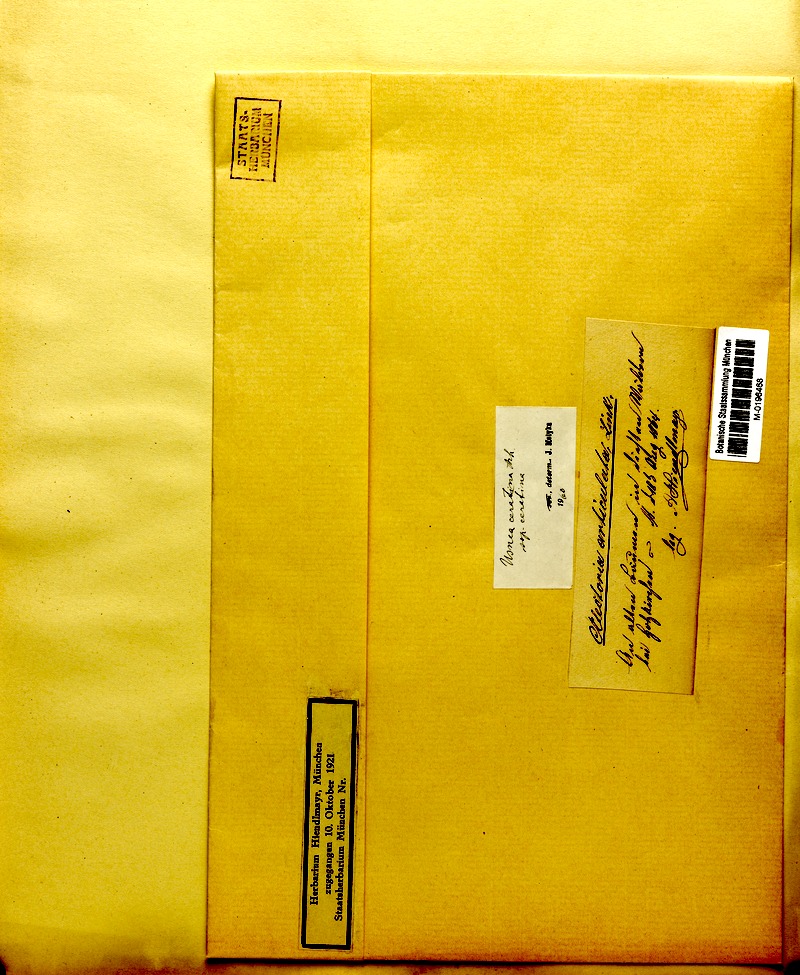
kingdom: Fungi
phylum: Ascomycota
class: Lecanoromycetes
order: Lecanorales
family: Parmeliaceae
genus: Usnea
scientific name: Usnea ceratina
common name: Warty beard lichen
